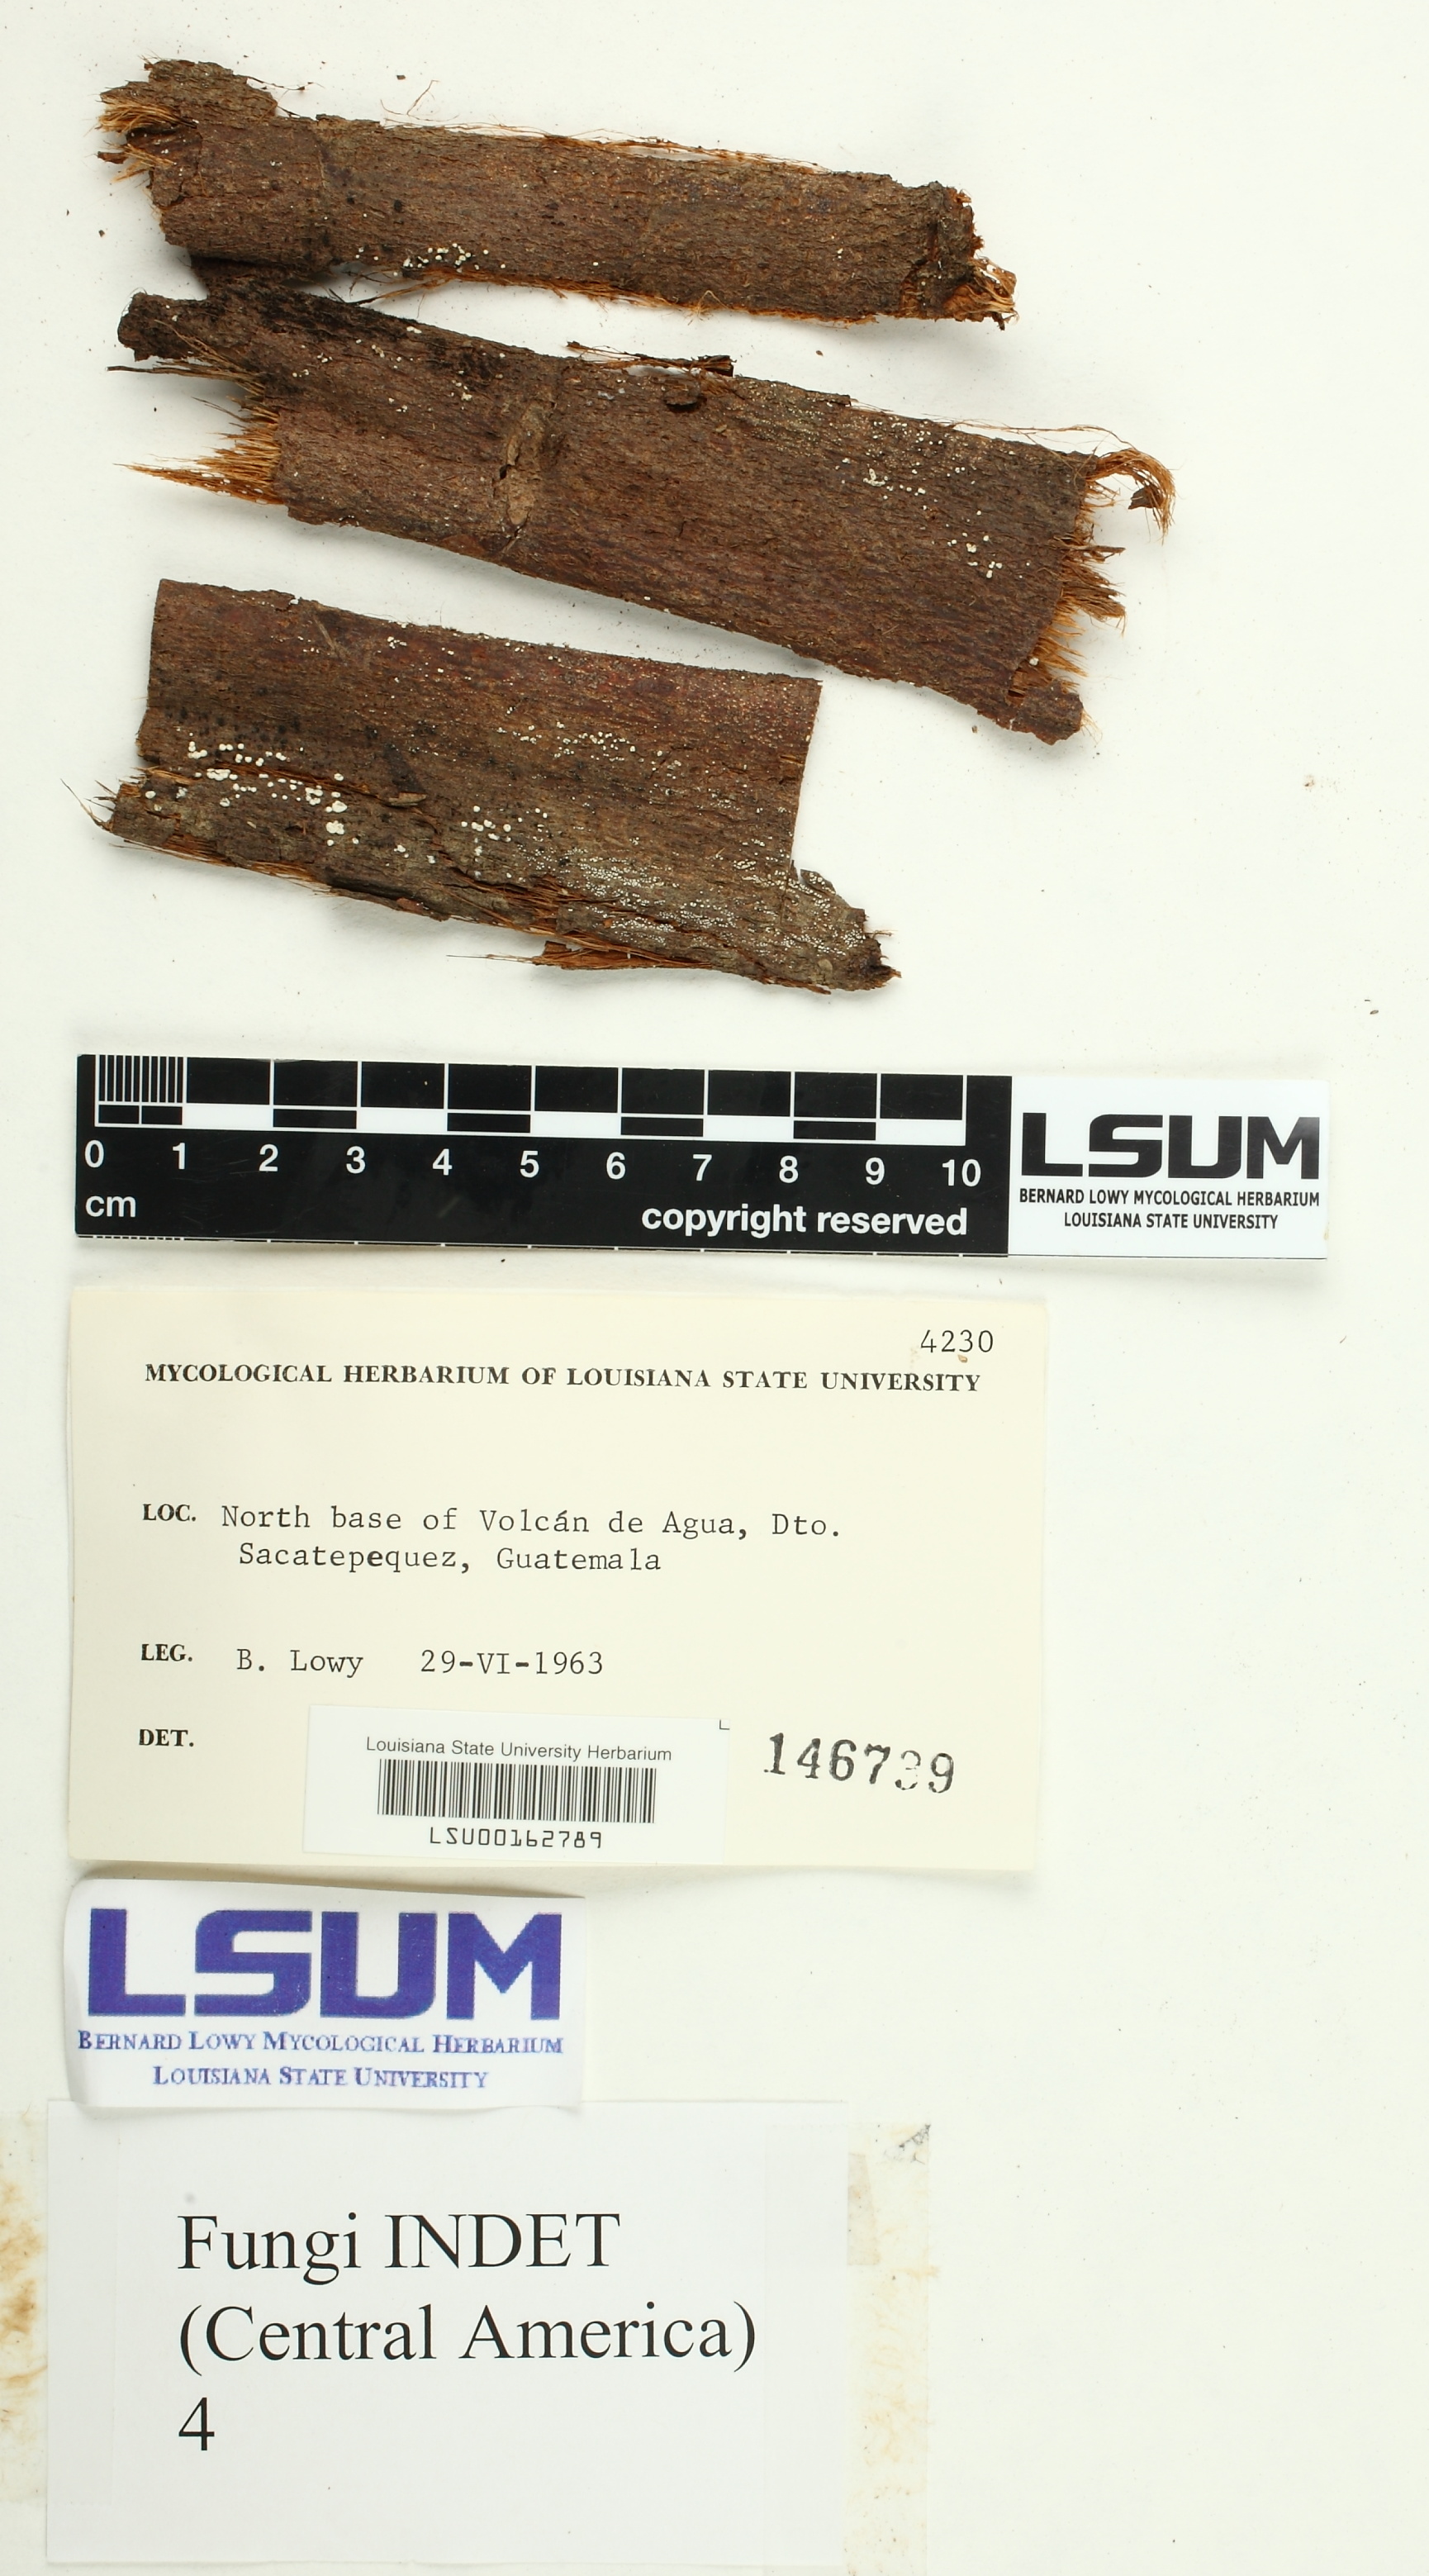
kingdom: Fungi
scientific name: Fungi
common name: Fungi
